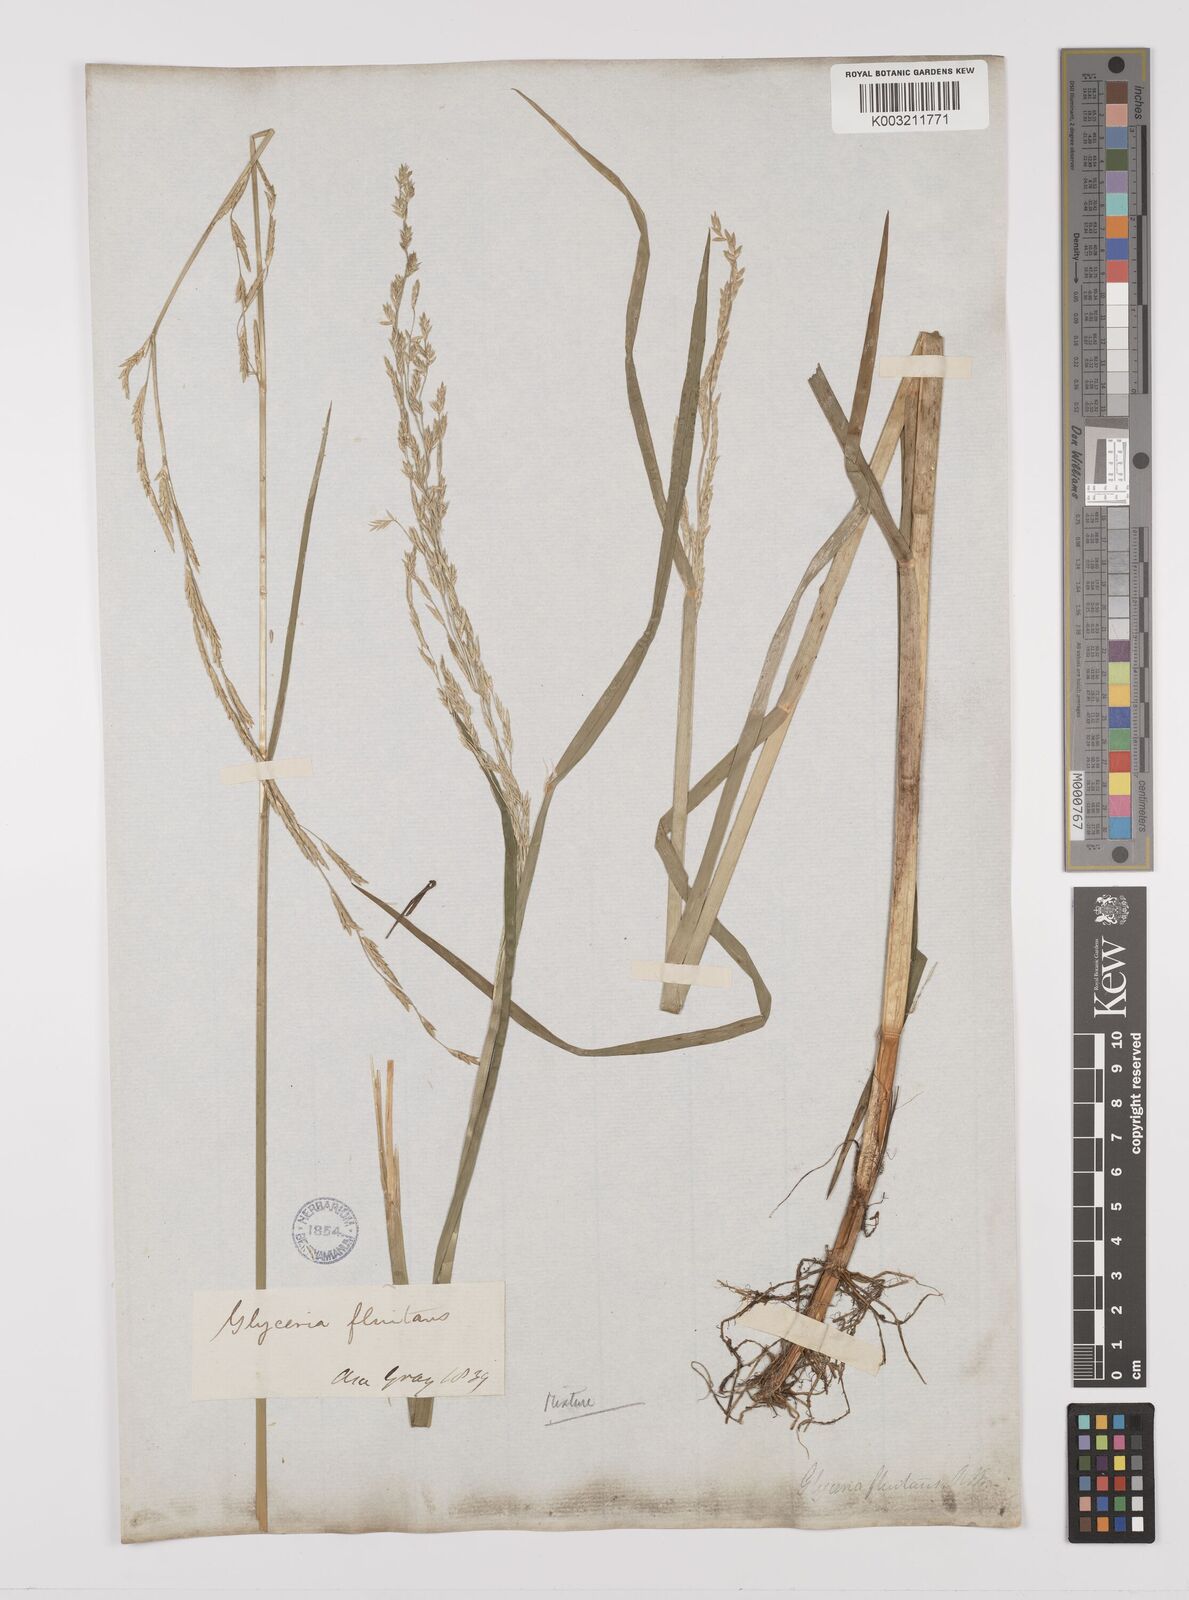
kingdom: Plantae
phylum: Tracheophyta
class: Liliopsida
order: Poales
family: Poaceae
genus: Glyceria
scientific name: Glyceria borealis
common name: Boreal glyceria
